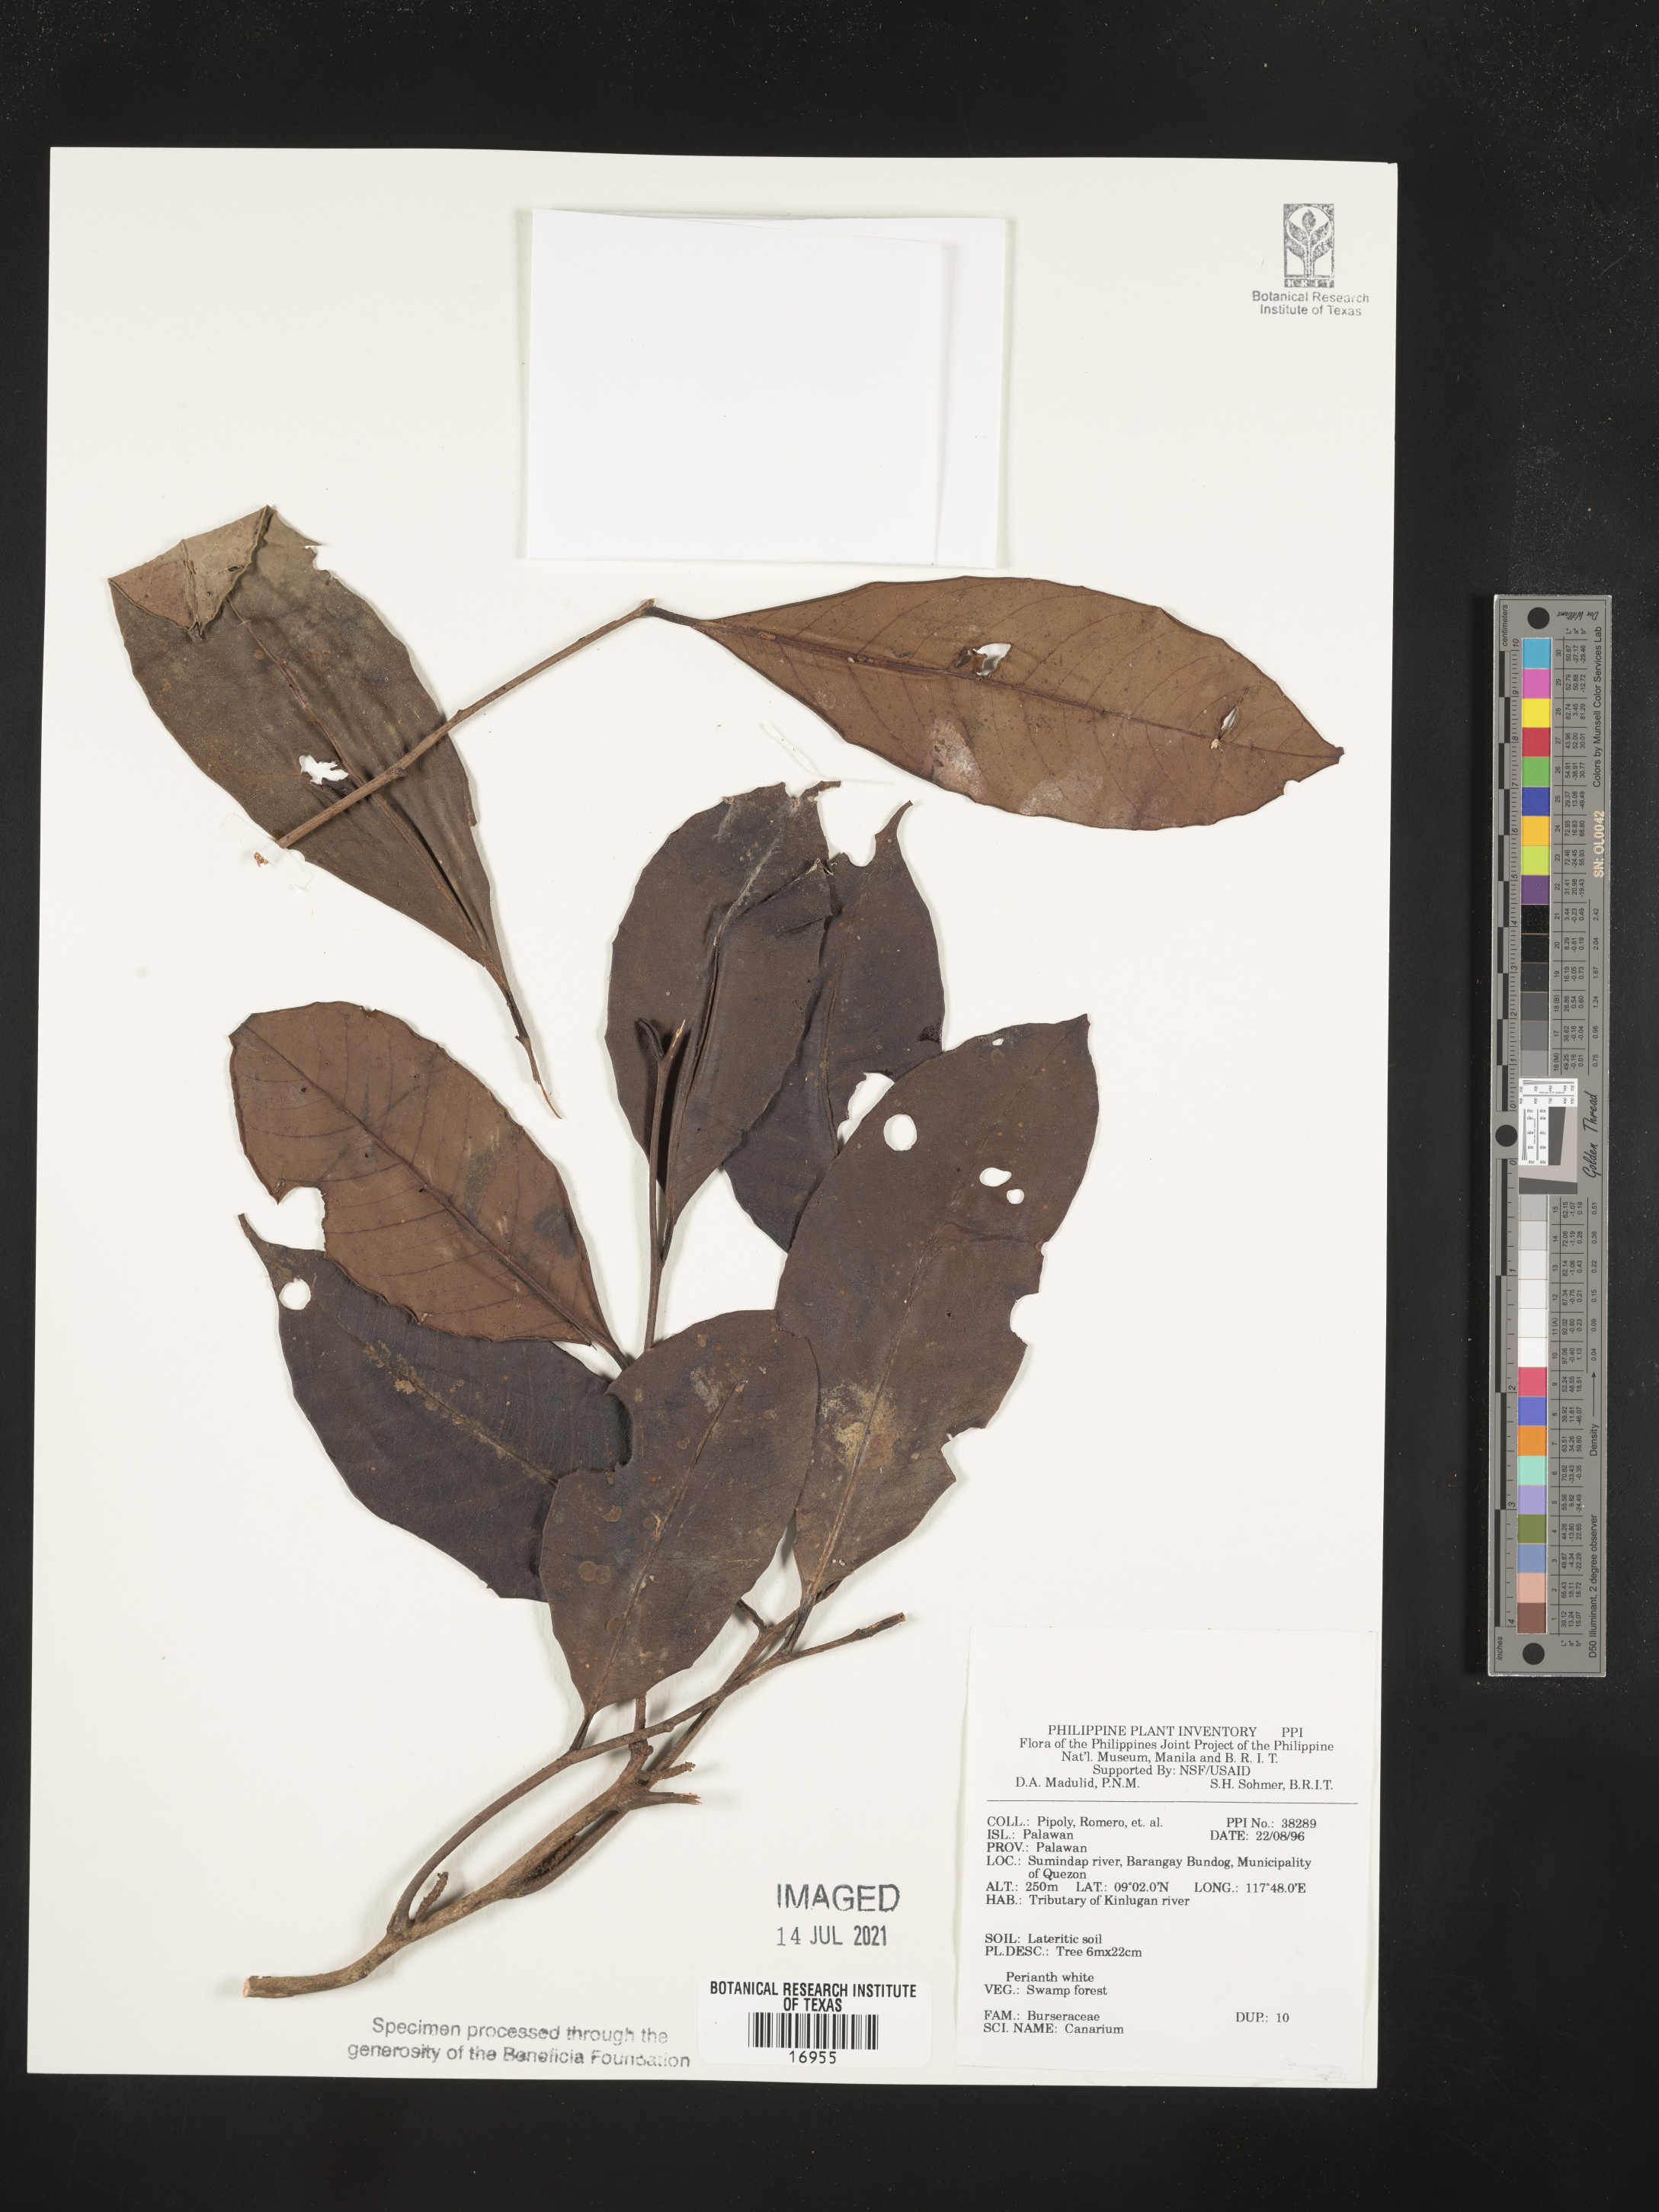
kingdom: Plantae
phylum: Tracheophyta
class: Magnoliopsida
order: Sapindales
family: Burseraceae
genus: Canarium
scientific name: Canarium
